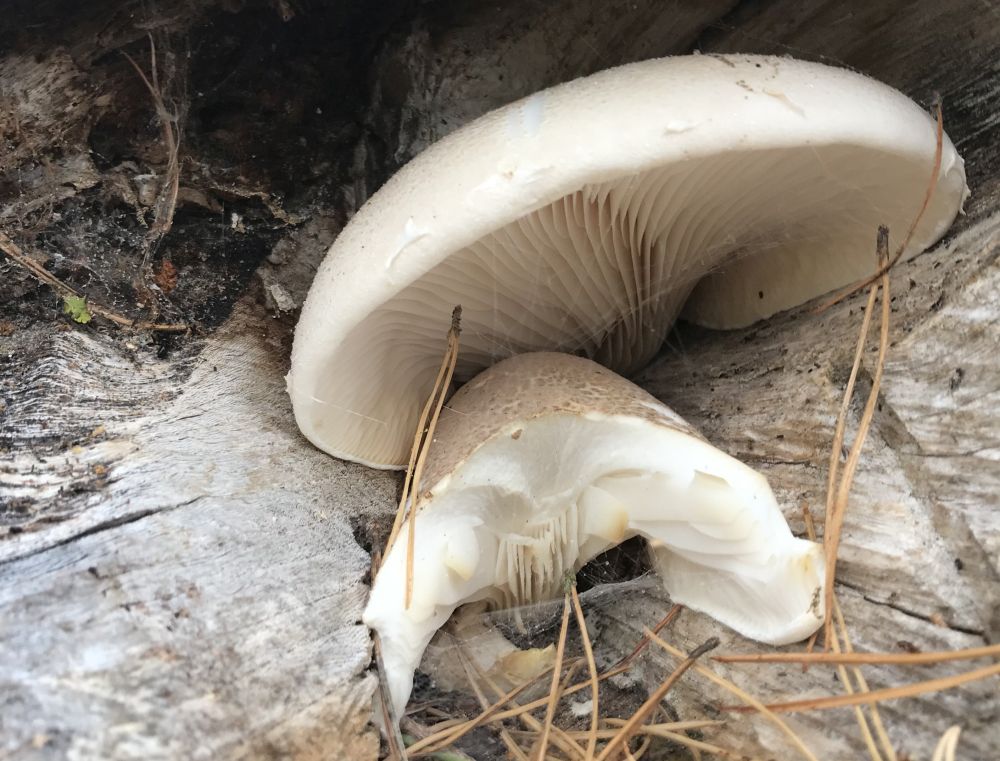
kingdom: Fungi
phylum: Basidiomycota
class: Agaricomycetes
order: Agaricales
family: Pleurotaceae
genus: Pleurotus
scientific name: Pleurotus dryinus
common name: korkagtig østershat
